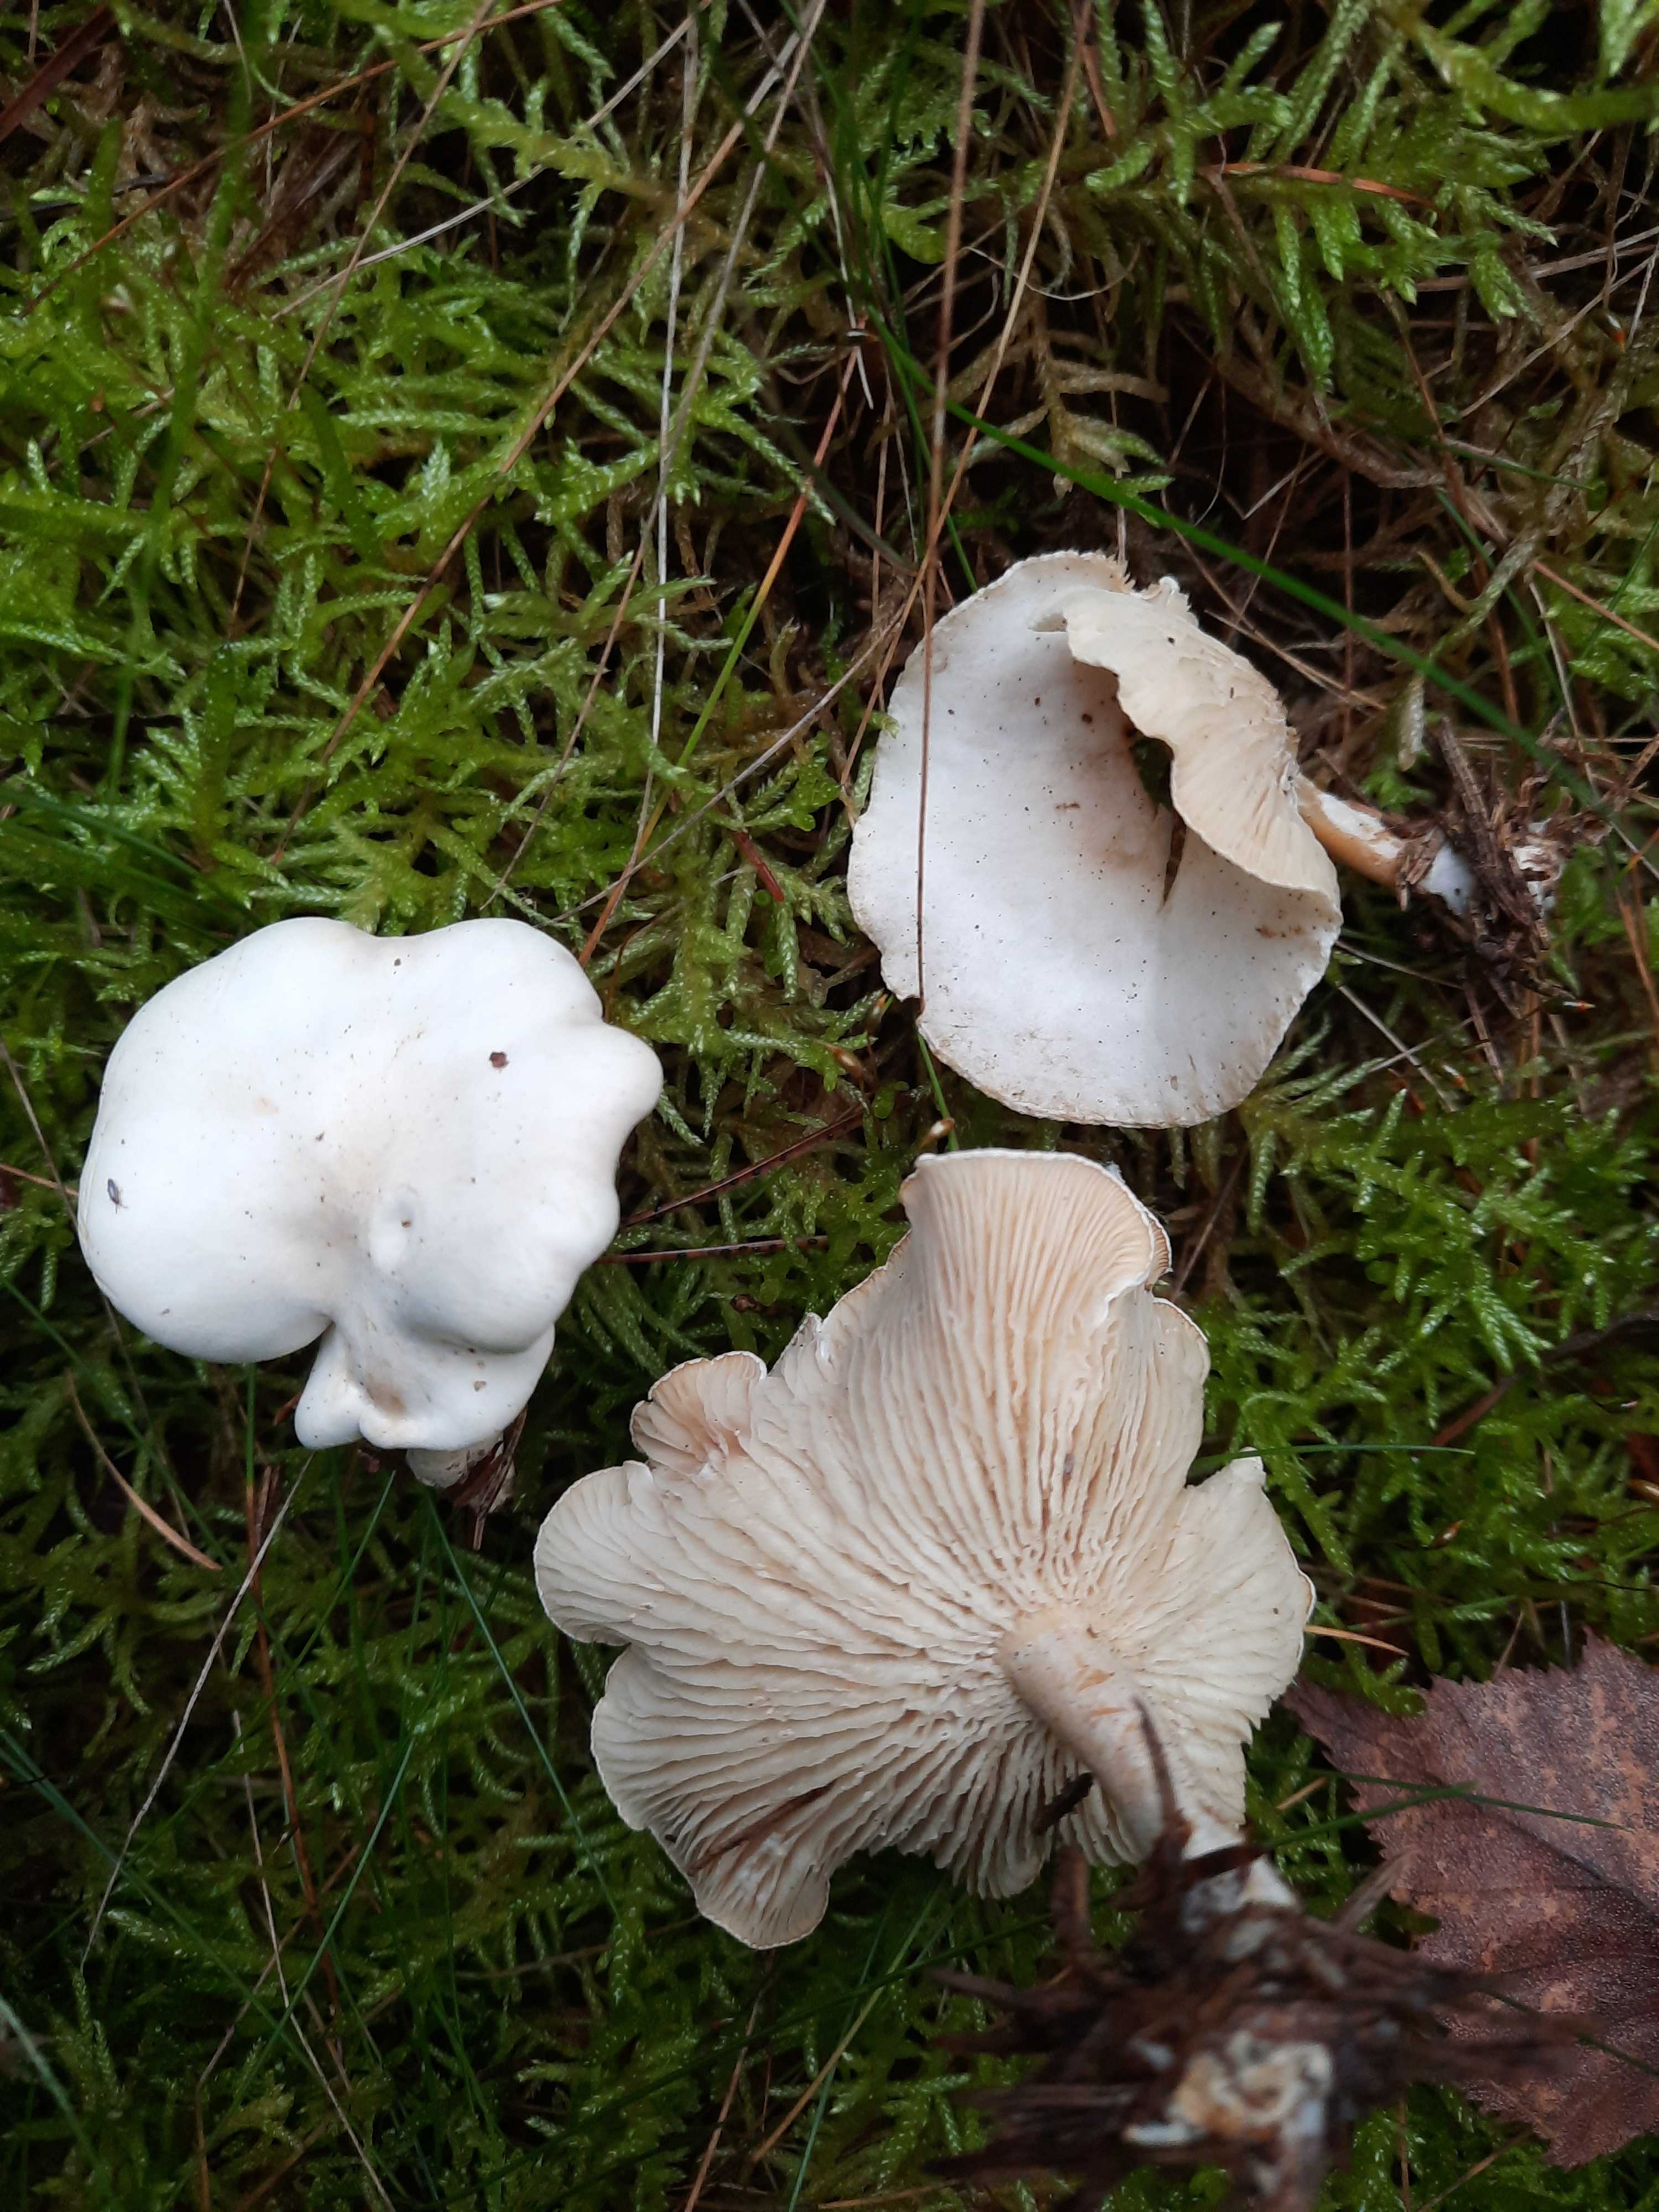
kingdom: Fungi
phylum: Basidiomycota
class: Agaricomycetes
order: Agaricales
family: Tricholomataceae
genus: Clitocybe
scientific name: Clitocybe phyllophila
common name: løv-tragthat
